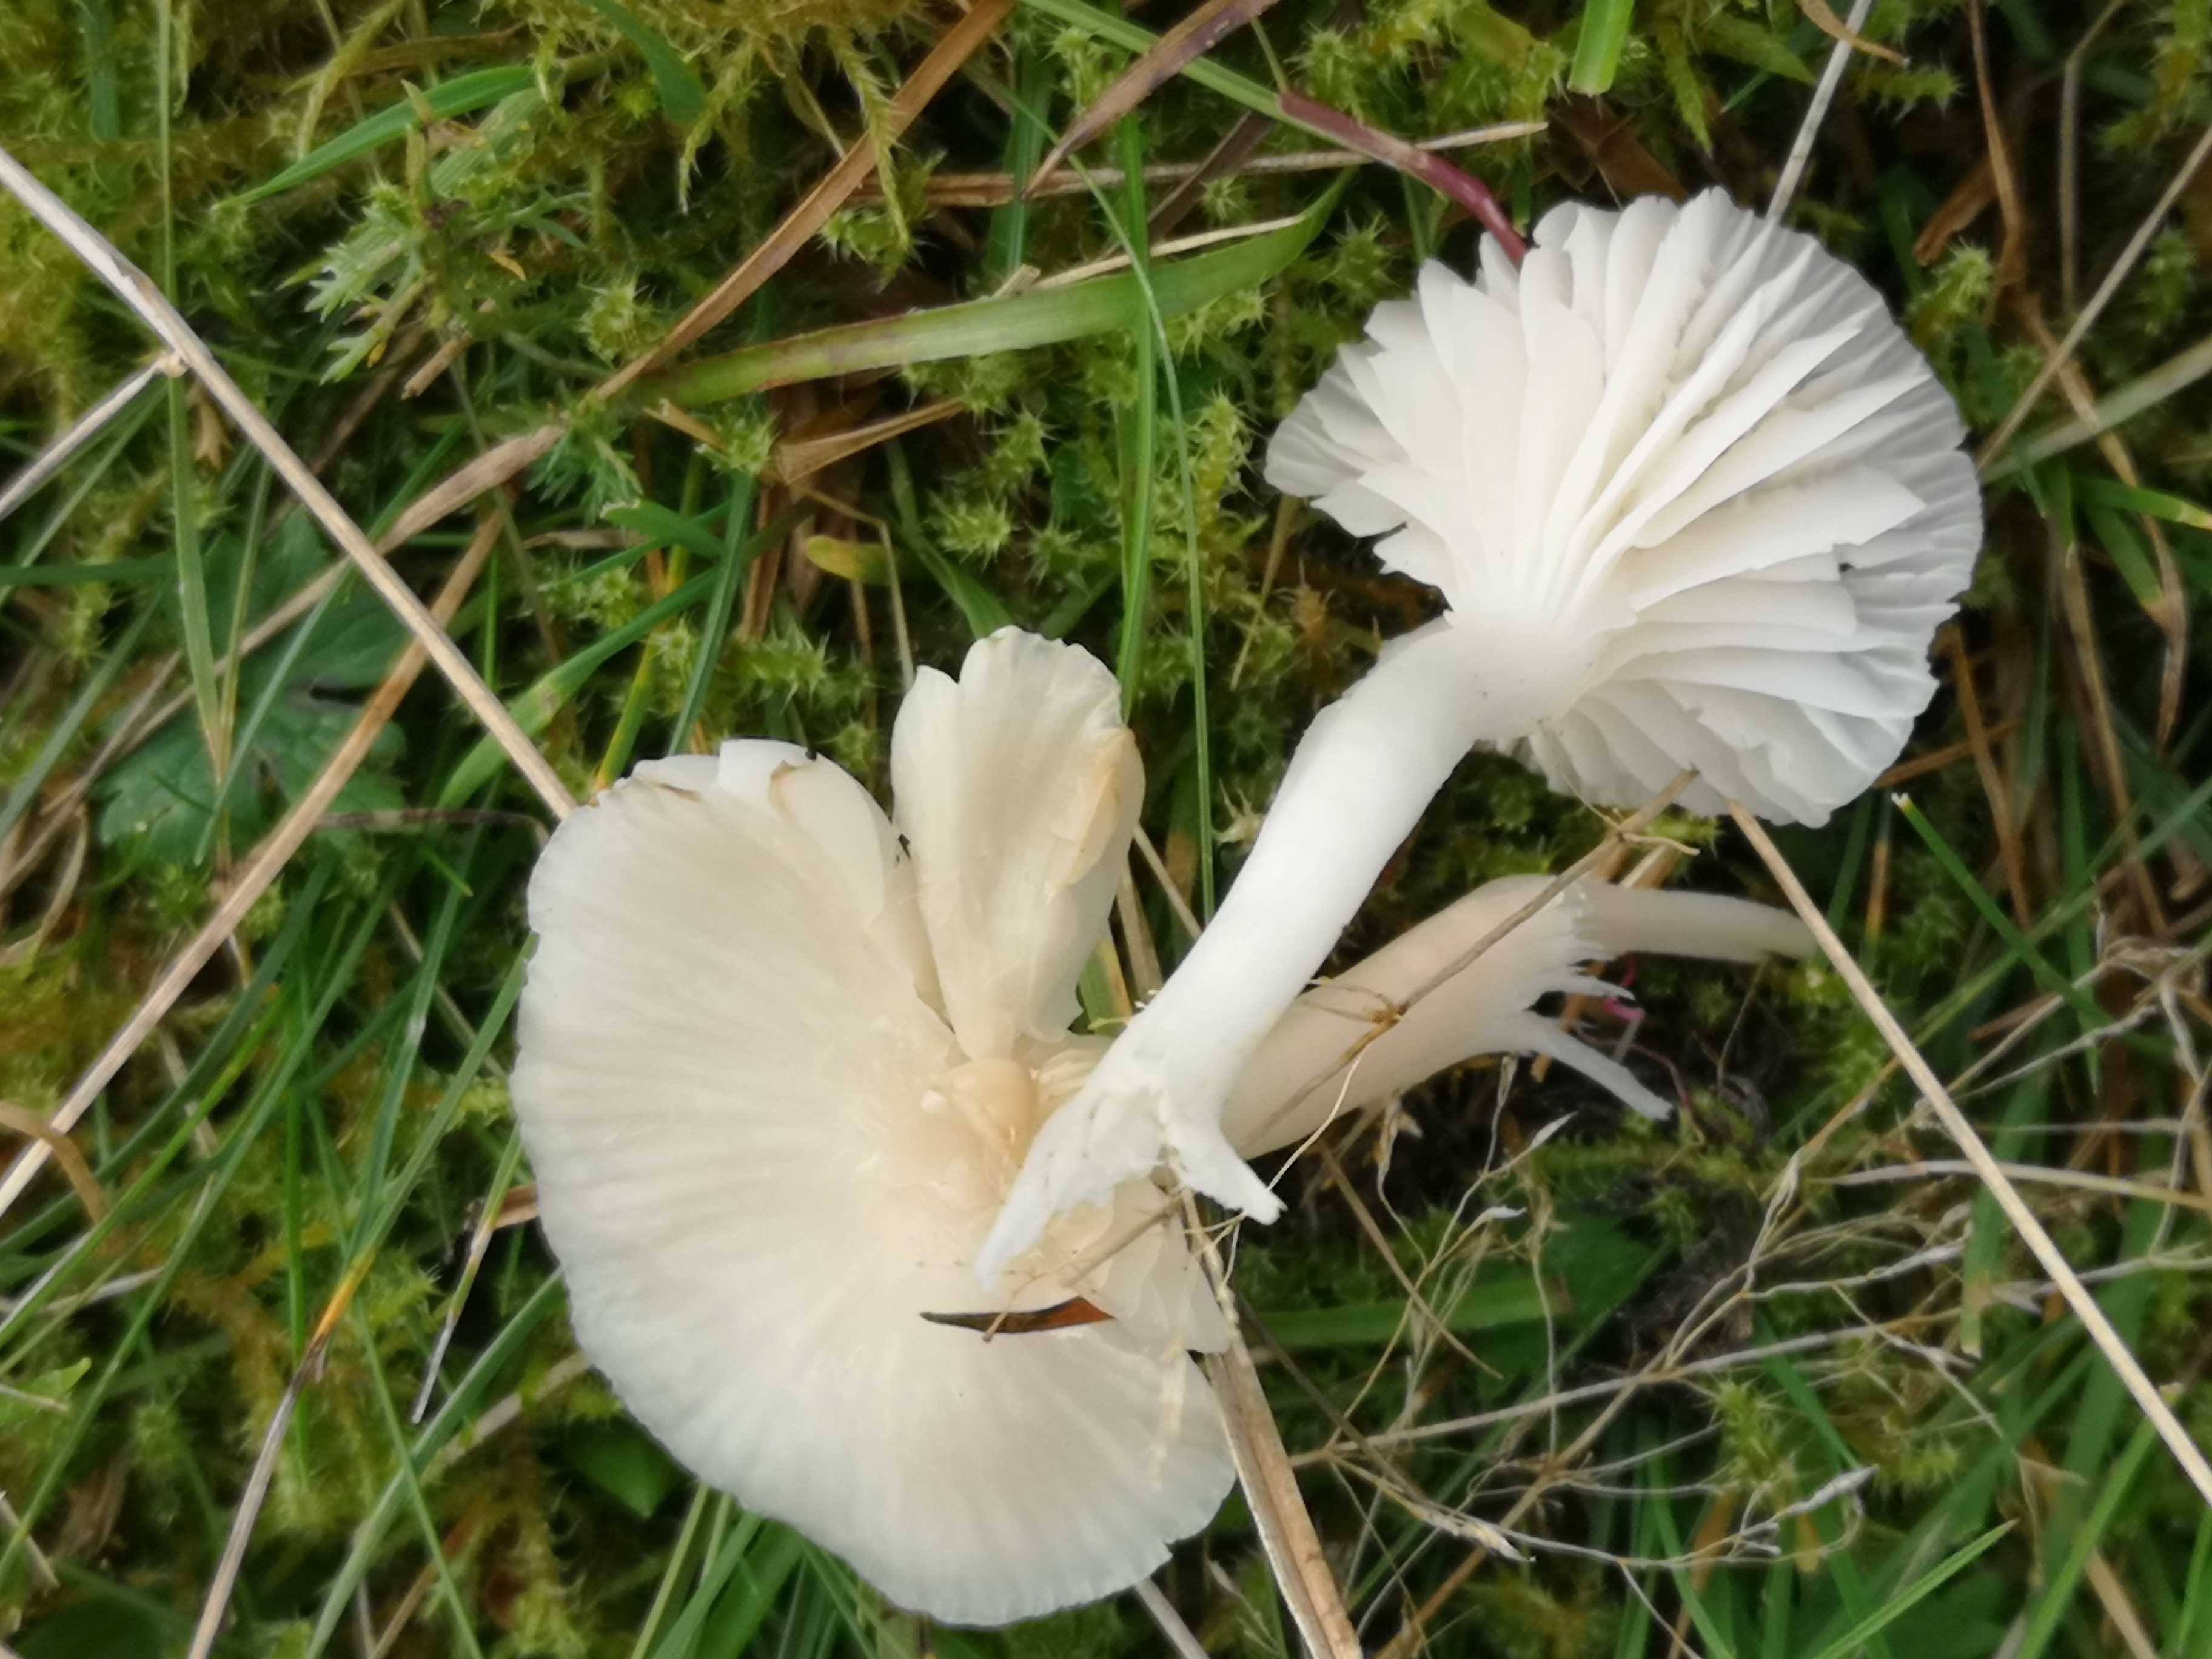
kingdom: Fungi
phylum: Basidiomycota
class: Agaricomycetes
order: Agaricales
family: Hygrophoraceae
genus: Cuphophyllus
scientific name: Cuphophyllus virgineus
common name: snehvid vokshat
